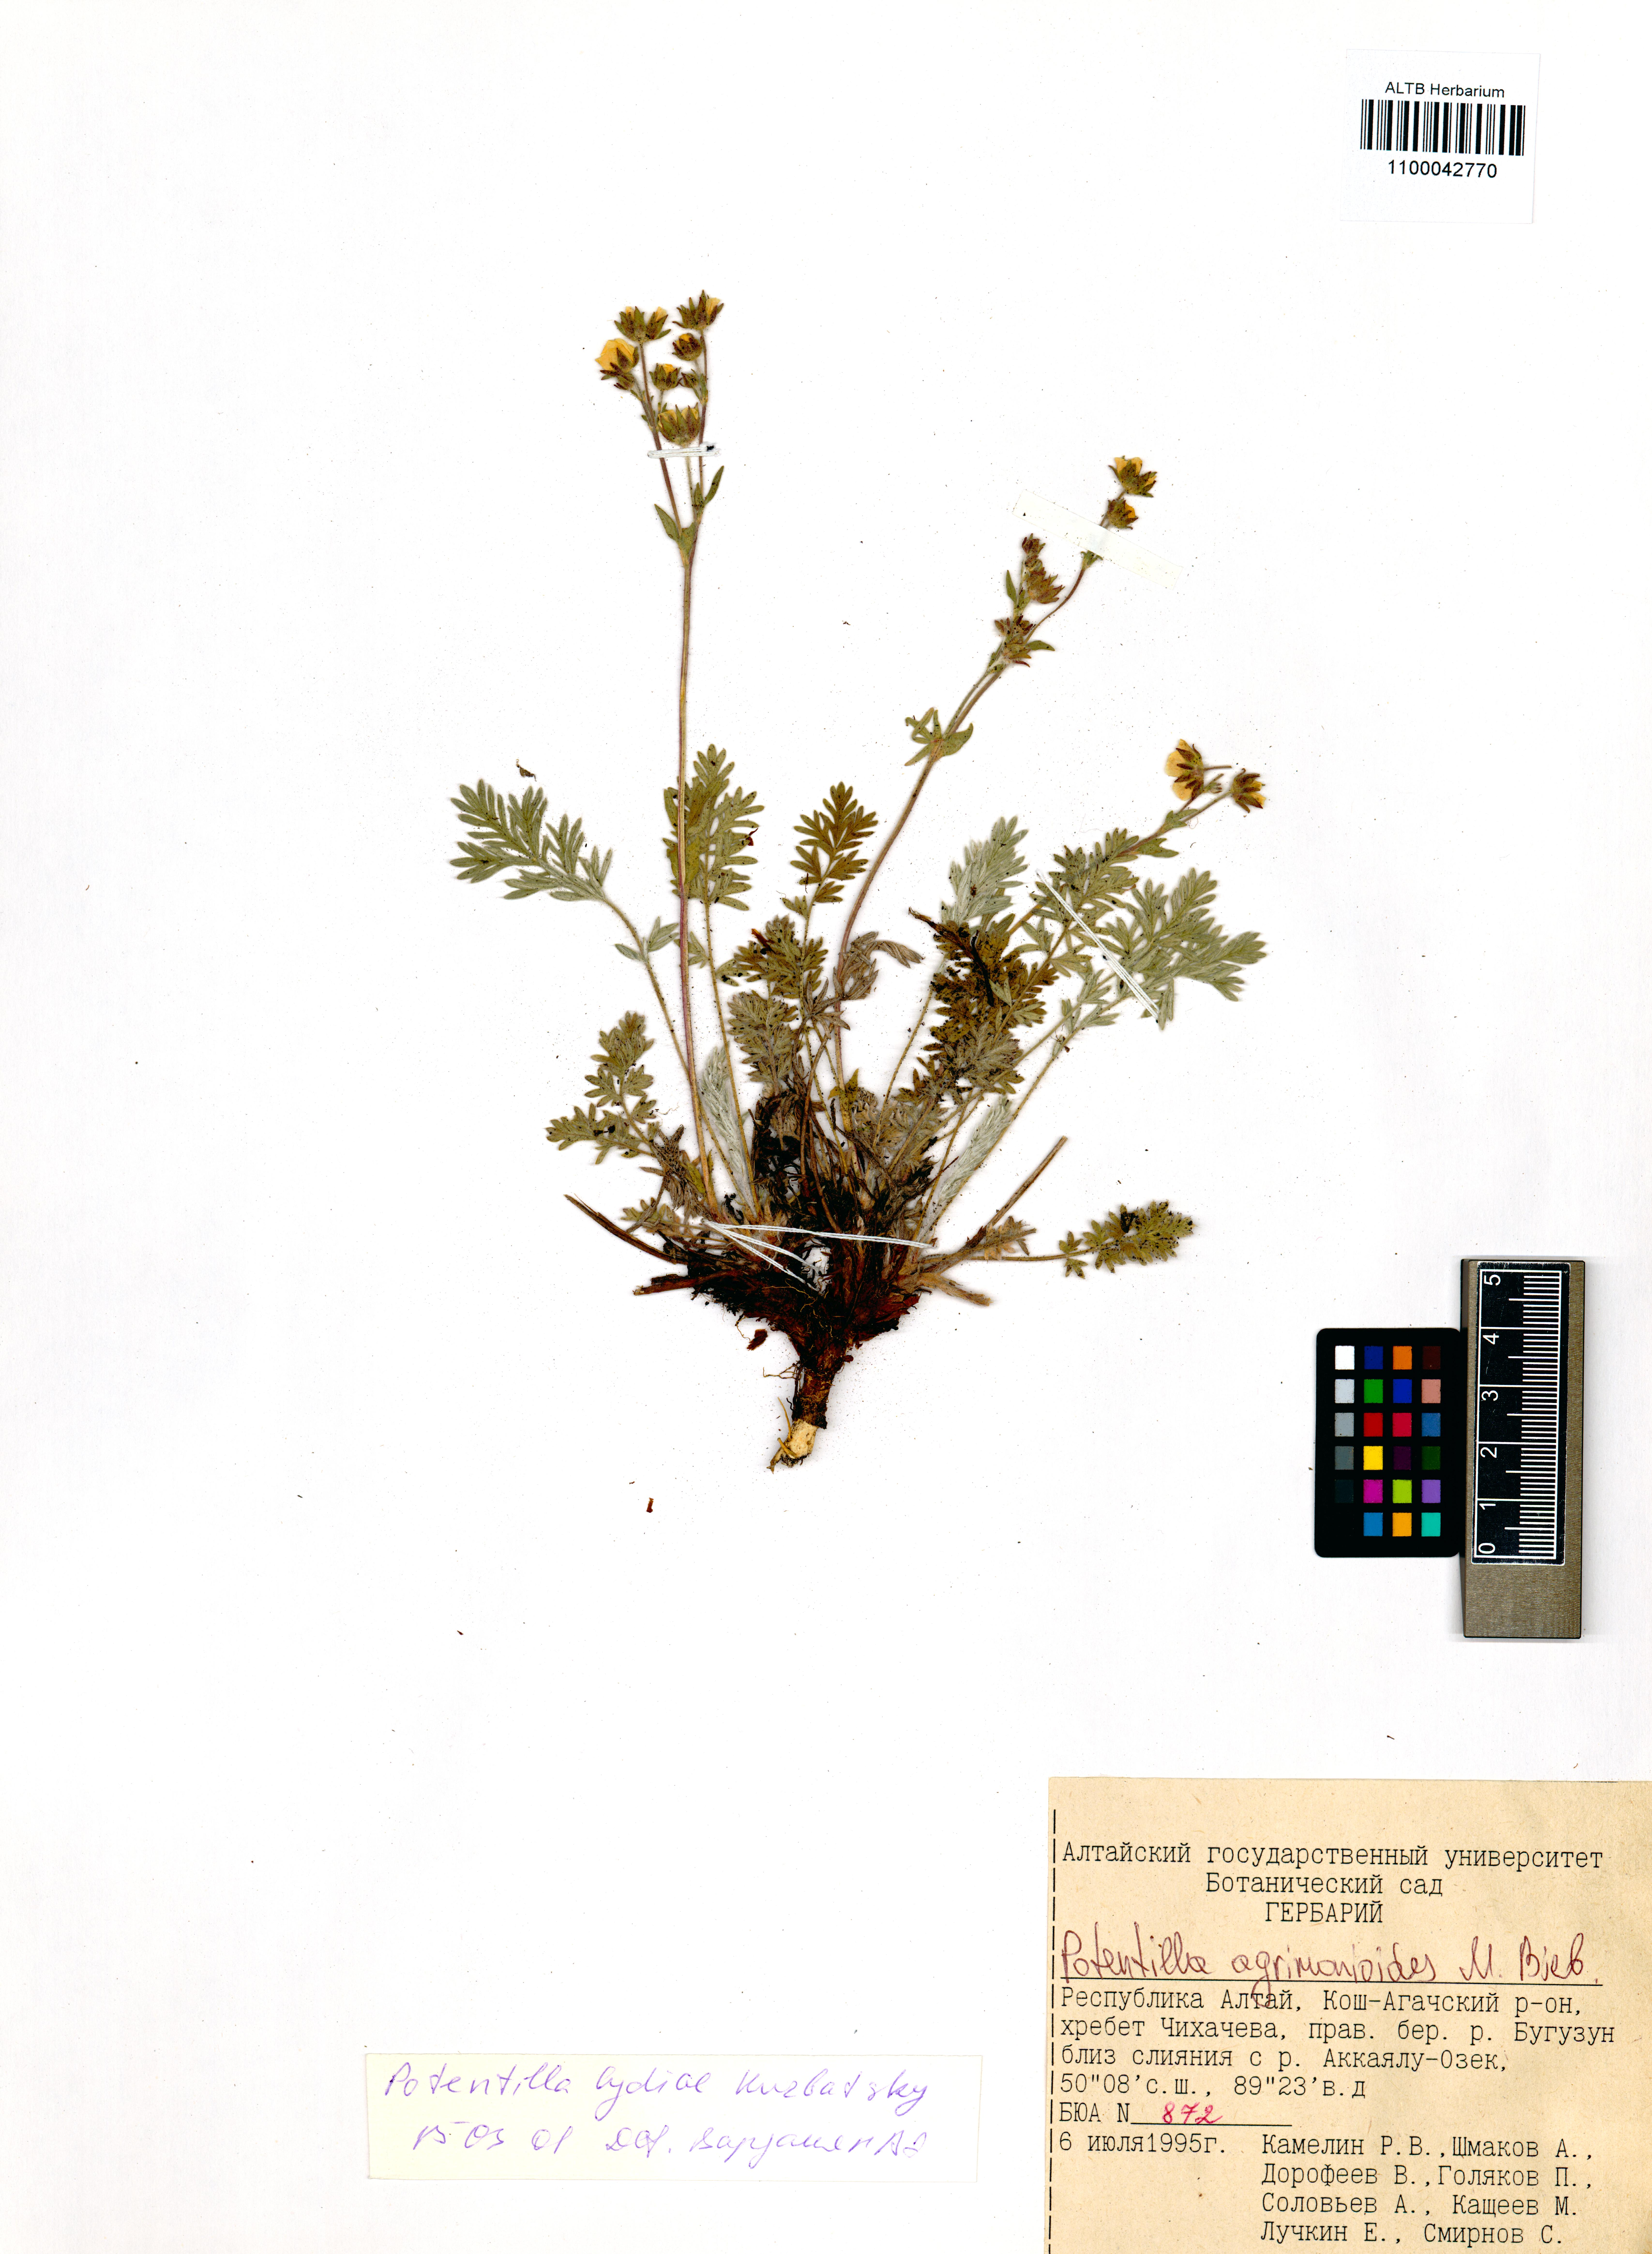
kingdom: Plantae
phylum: Tracheophyta
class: Magnoliopsida
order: Rosales
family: Rosaceae
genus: Potentilla
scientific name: Potentilla agrimonioides
